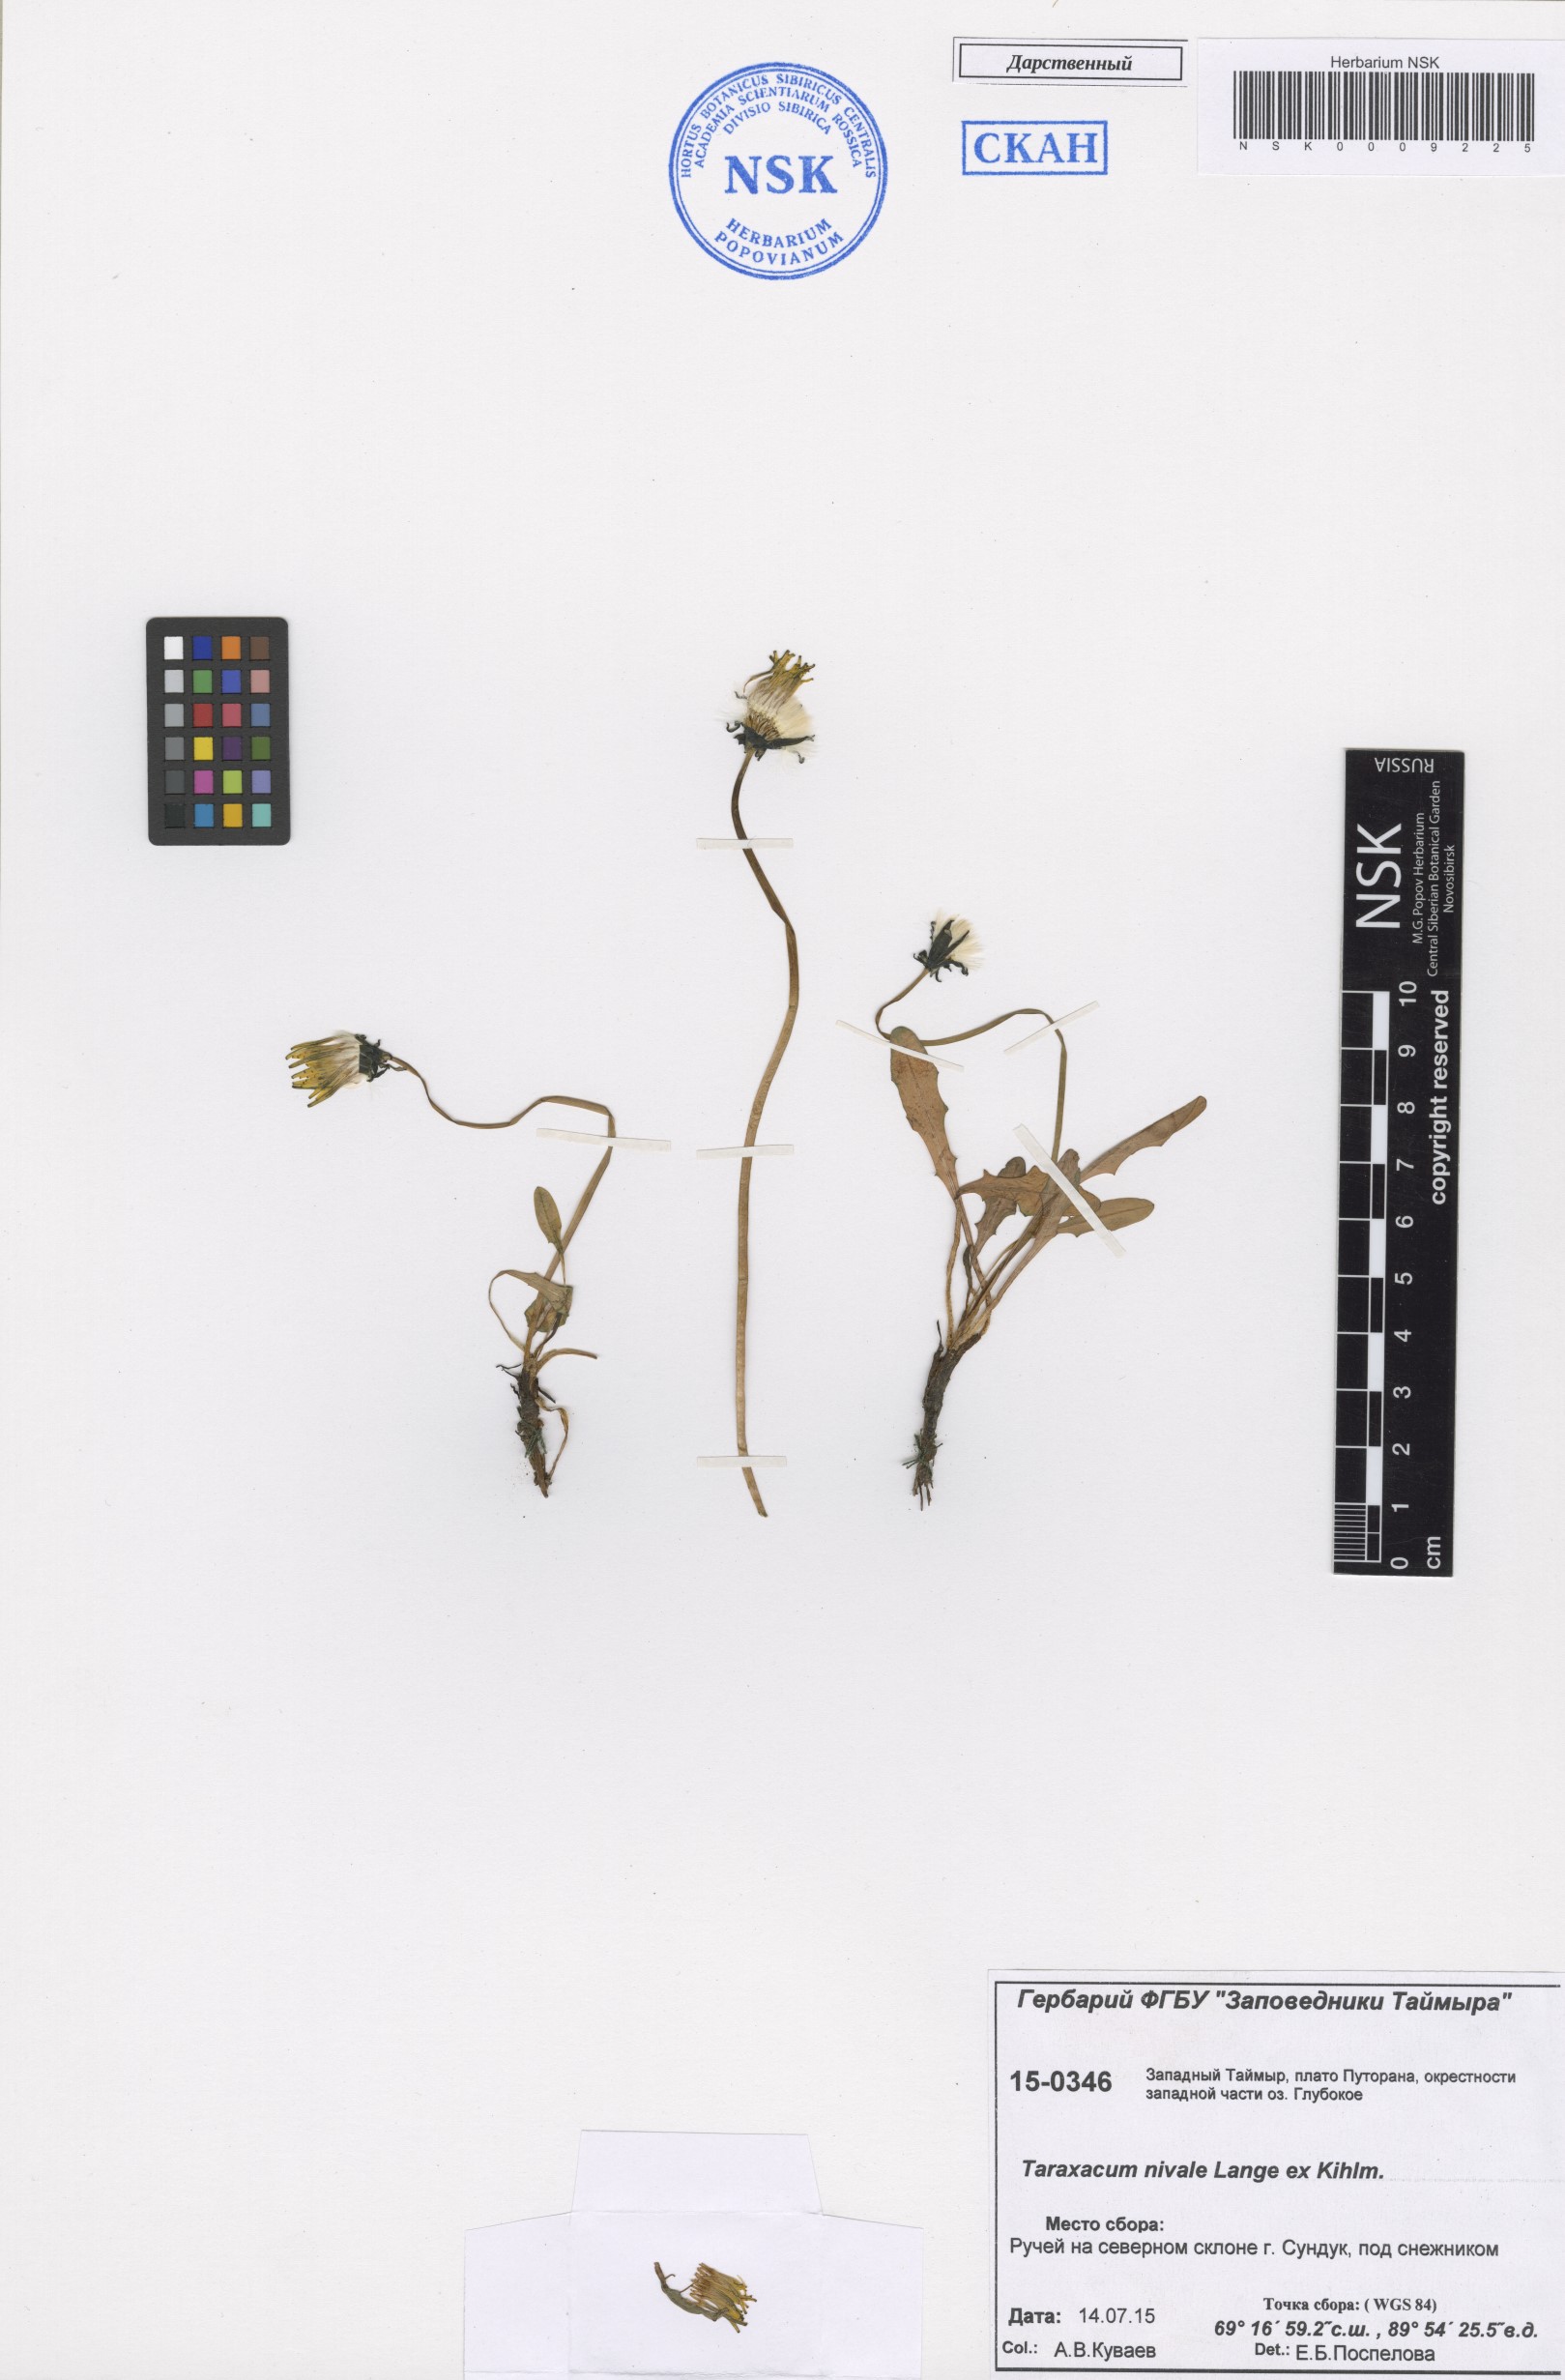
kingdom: Plantae
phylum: Tracheophyta
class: Magnoliopsida
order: Asterales
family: Asteraceae
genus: Taraxacum
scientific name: Taraxacum nivale
